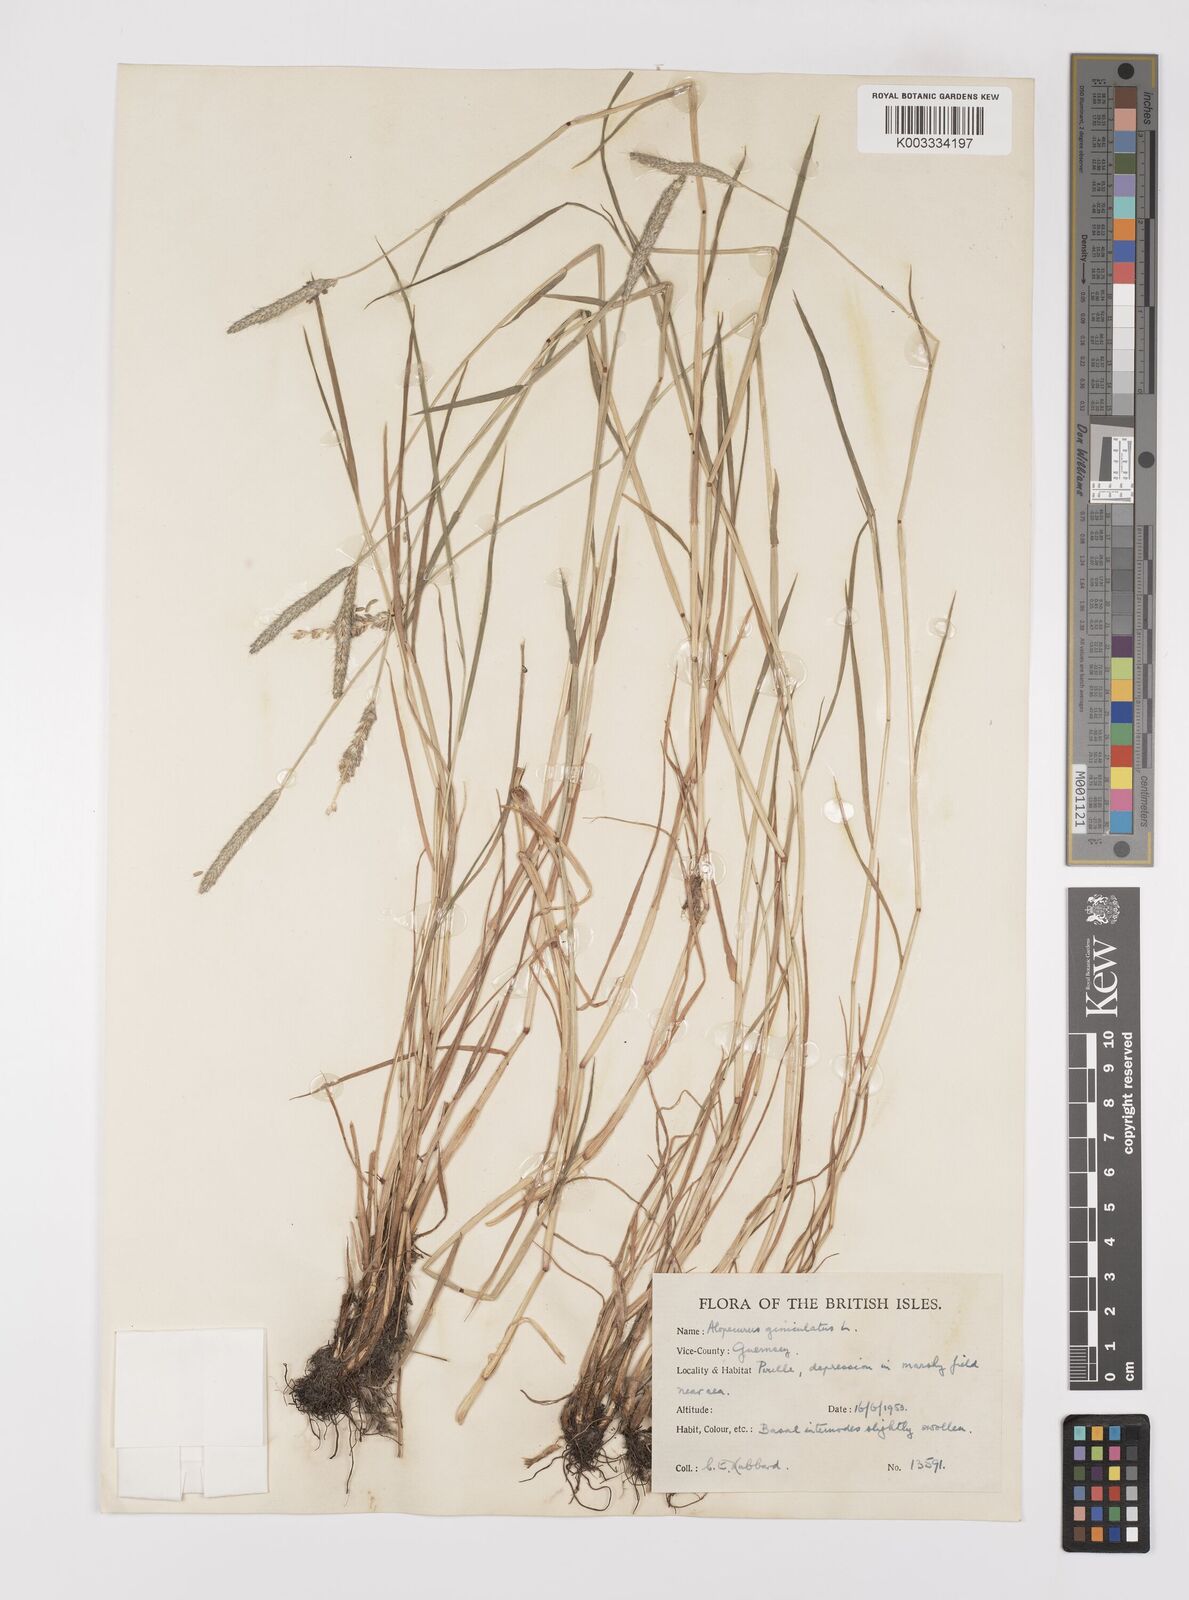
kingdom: Plantae
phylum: Tracheophyta
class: Liliopsida
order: Poales
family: Poaceae
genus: Alopecurus
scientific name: Alopecurus geniculatus
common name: Water foxtail
